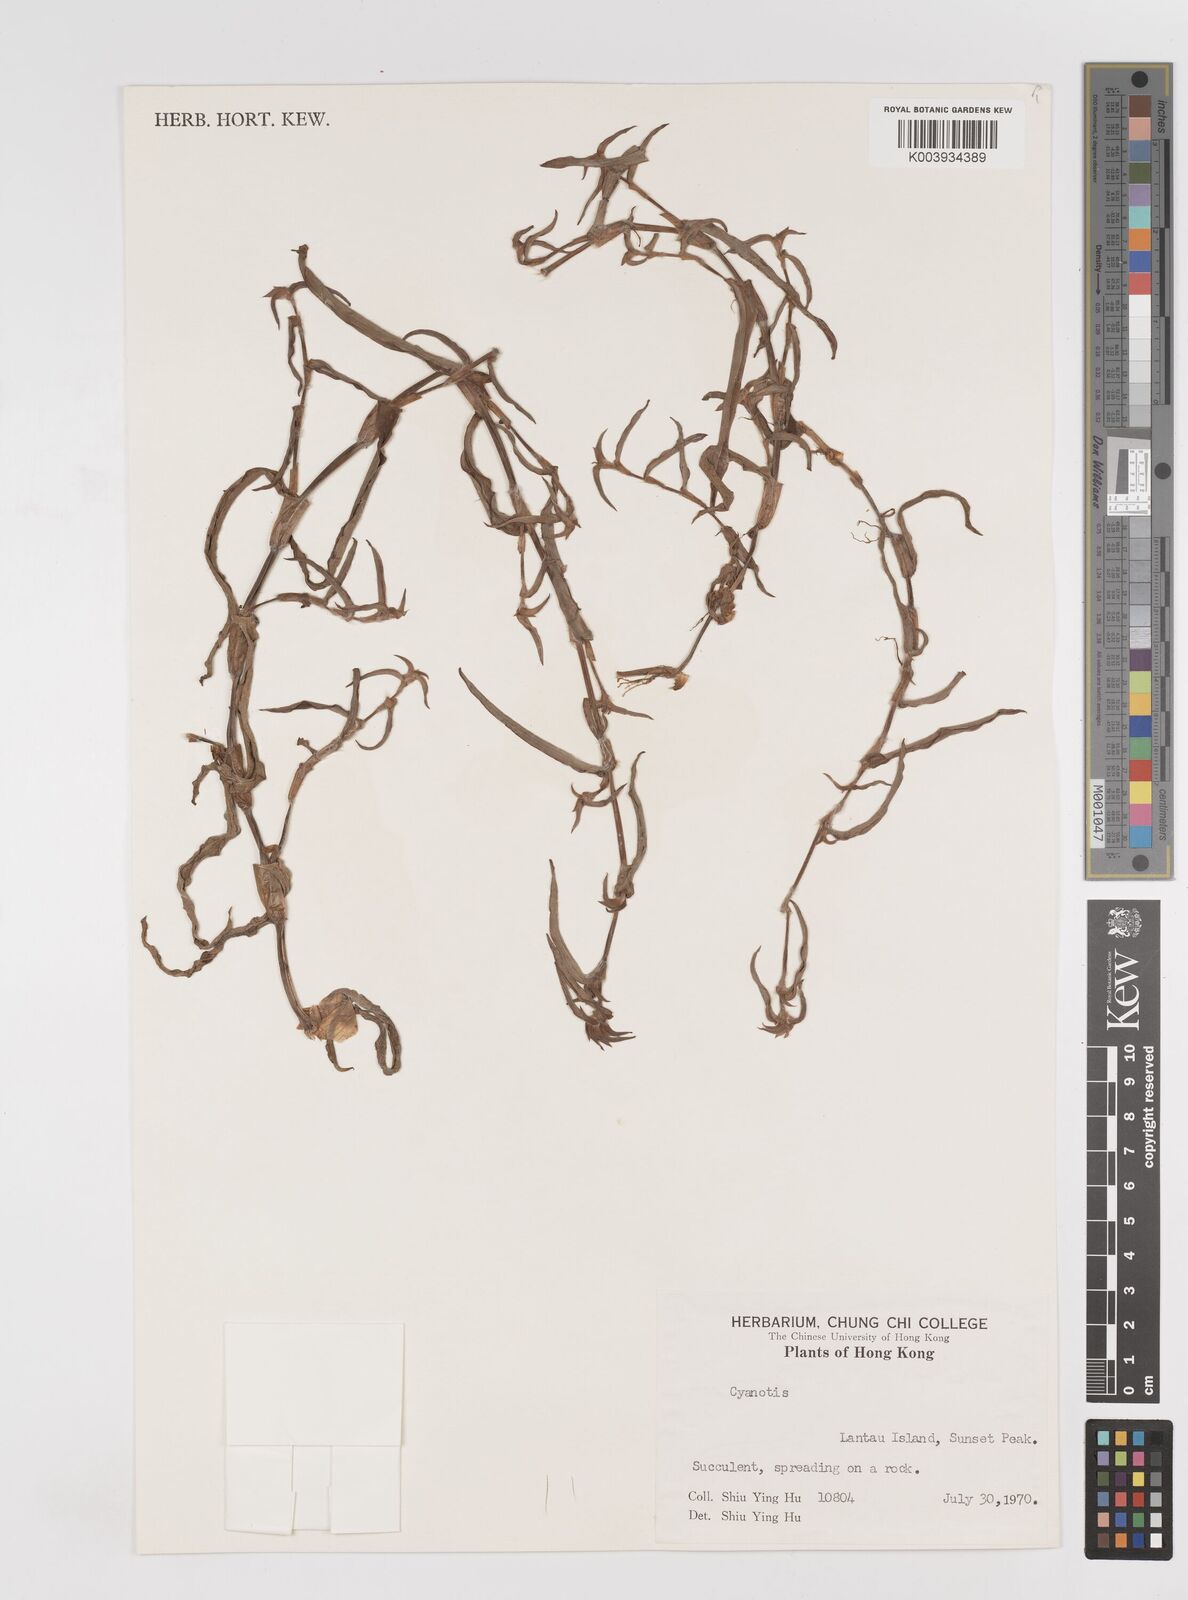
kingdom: Plantae
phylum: Tracheophyta
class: Liliopsida
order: Commelinales
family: Commelinaceae
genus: Cyanotis
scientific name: Cyanotis
